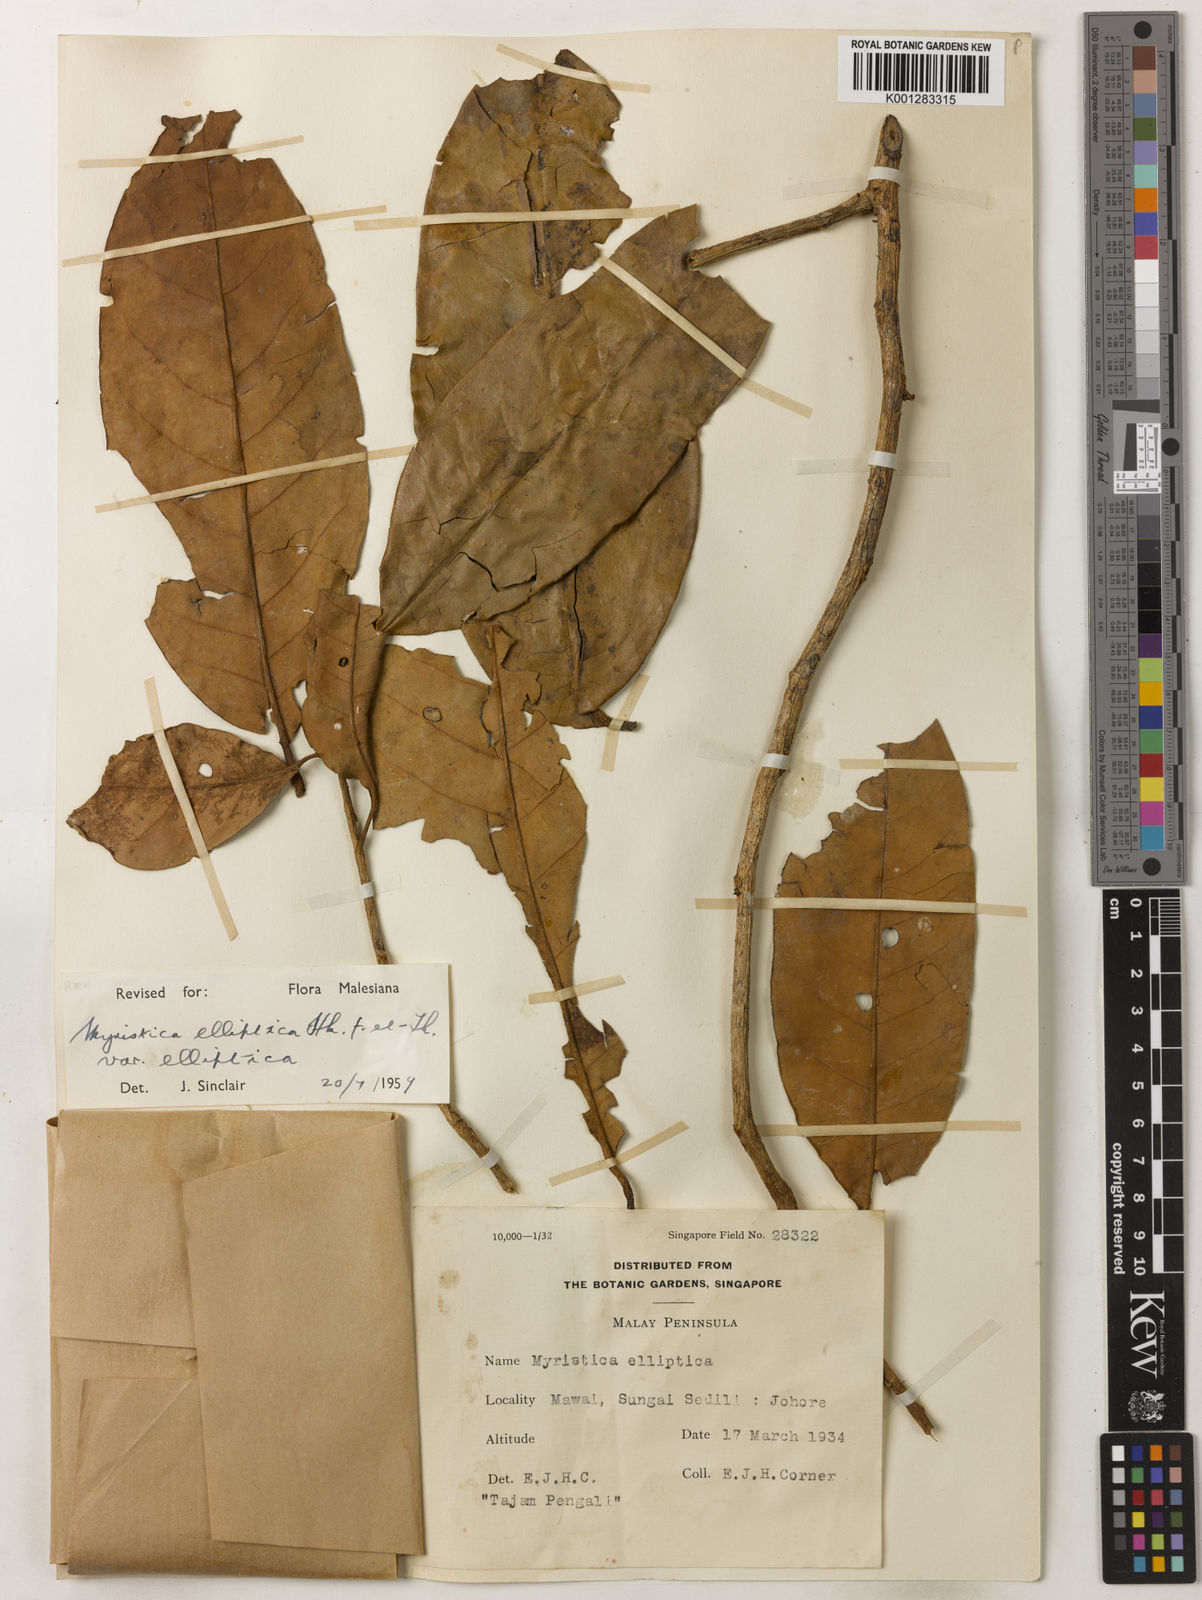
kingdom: Plantae
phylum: Tracheophyta
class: Magnoliopsida
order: Magnoliales
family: Myristicaceae
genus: Myristica
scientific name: Myristica elliptica
